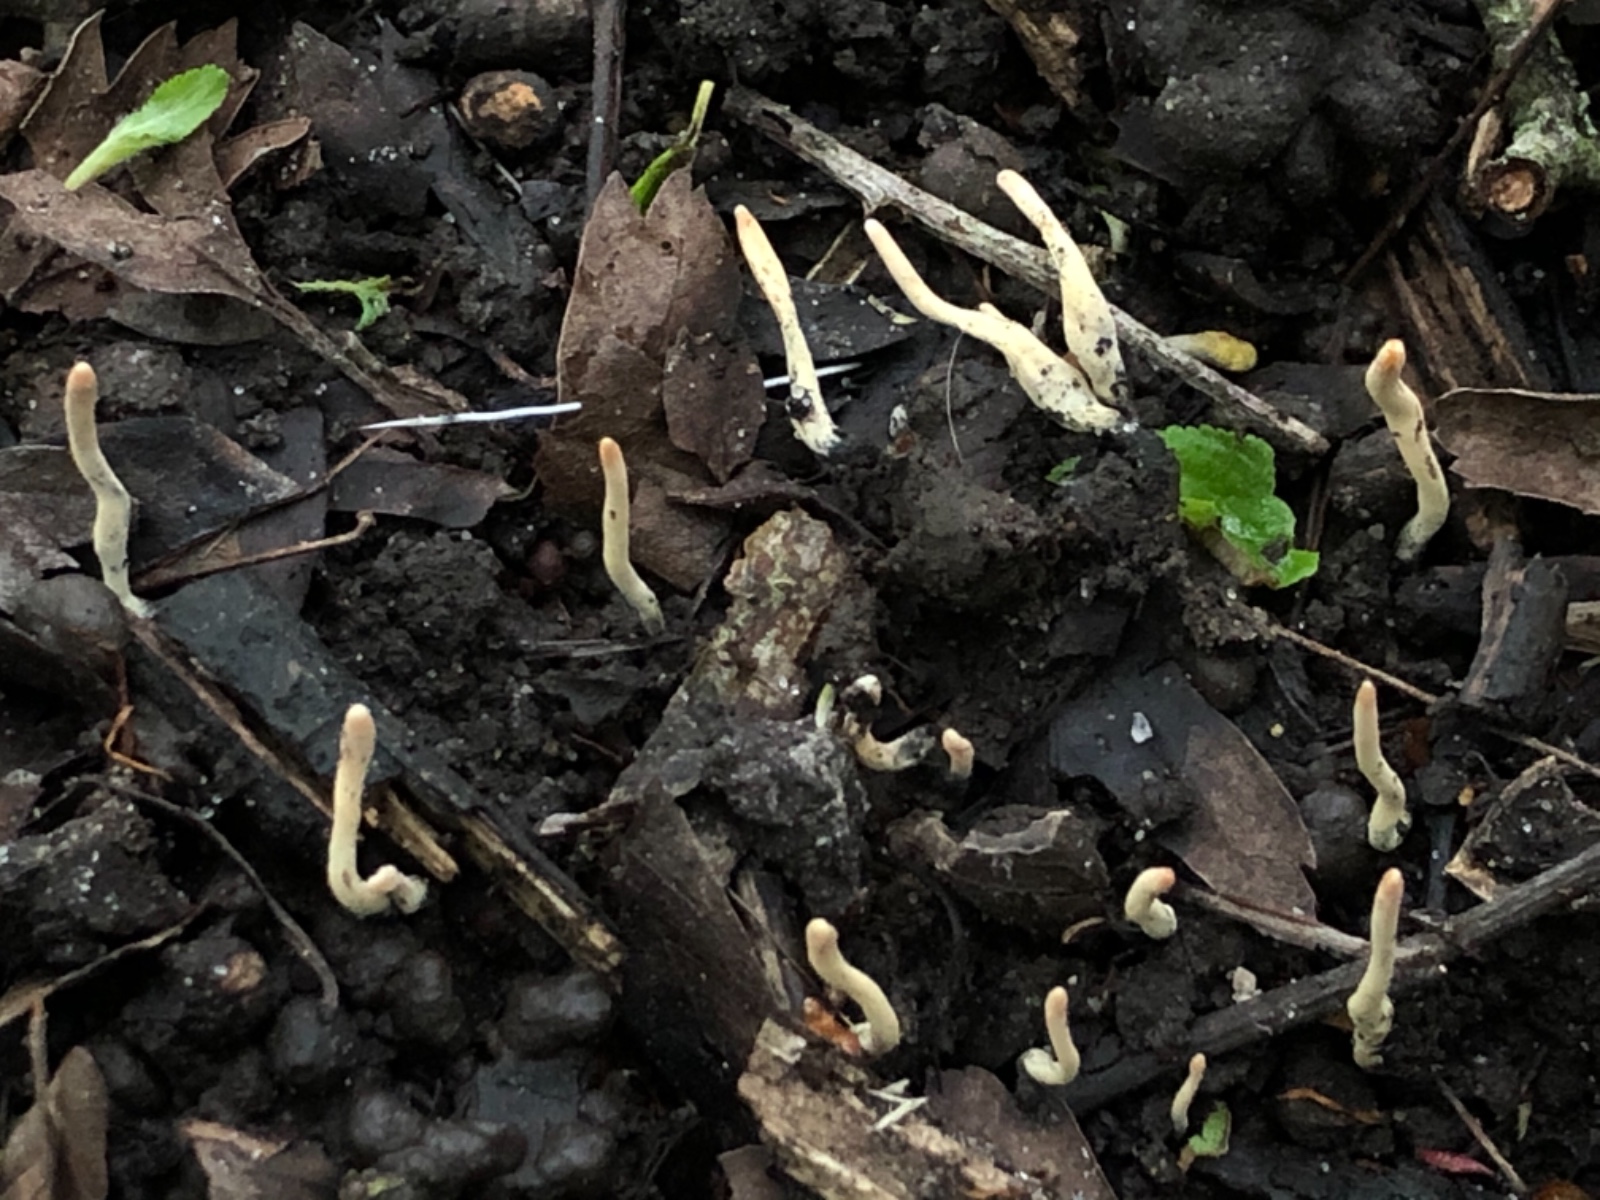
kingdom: Fungi
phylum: Ascomycota
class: Sordariomycetes
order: Xylariales
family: Xylariaceae
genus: Xylaria
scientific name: Xylaria oxyacanthae
